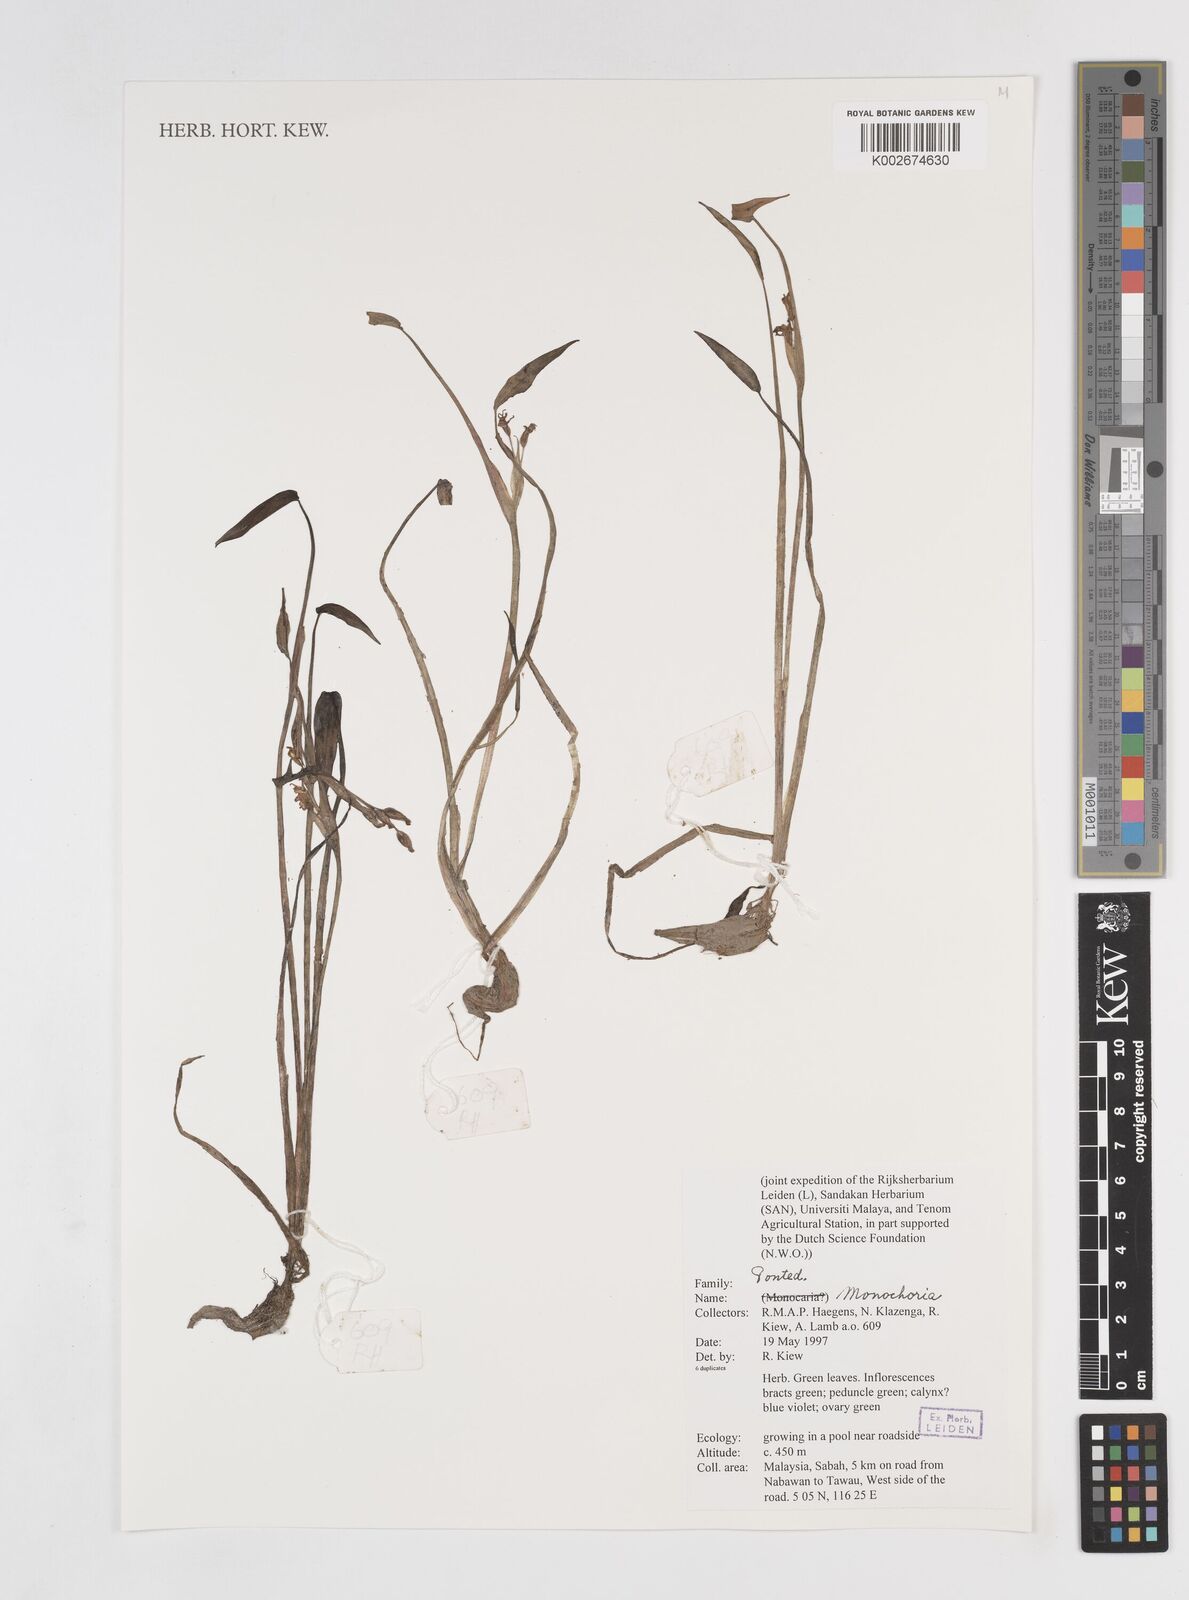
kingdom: Plantae
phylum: Tracheophyta
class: Liliopsida
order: Commelinales
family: Pontederiaceae
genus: Monochoria
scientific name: Monochoria
